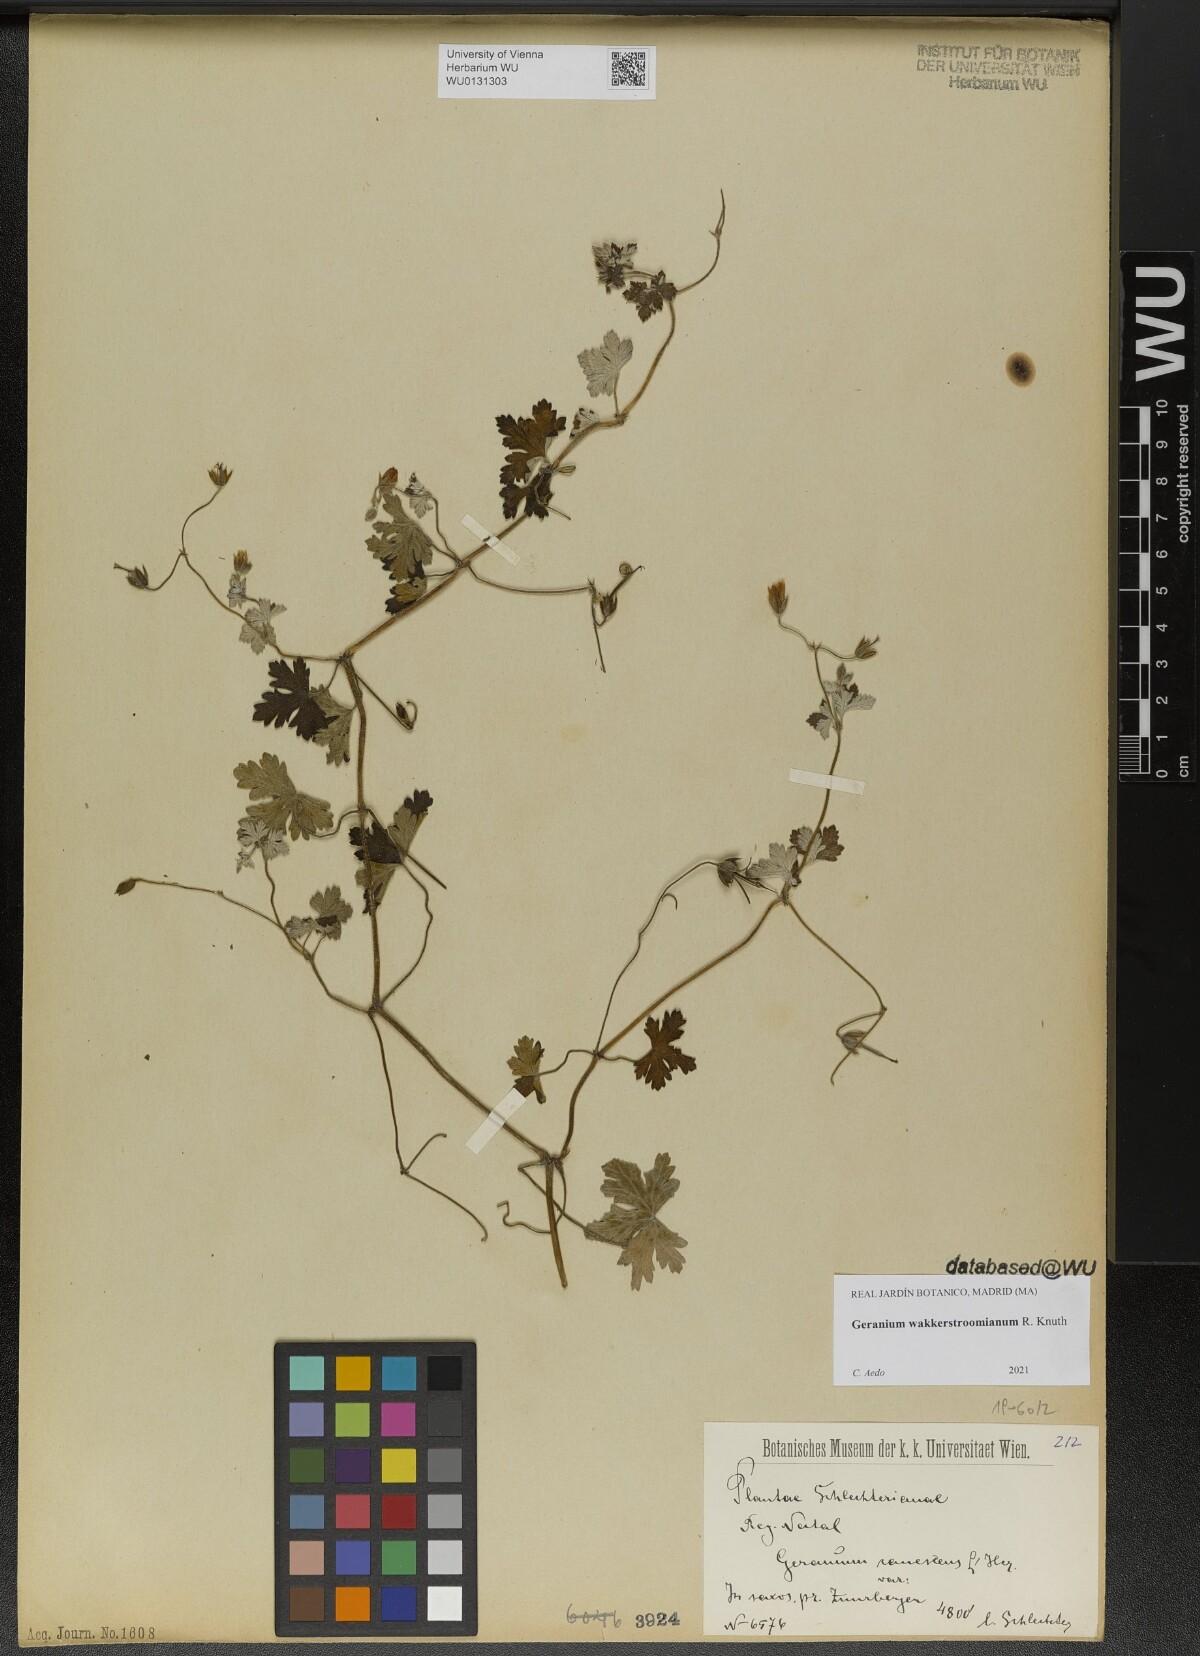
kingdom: Plantae
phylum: Tracheophyta
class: Magnoliopsida
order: Geraniales
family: Geraniaceae
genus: Geranium
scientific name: Geranium wakkerstroomianum
